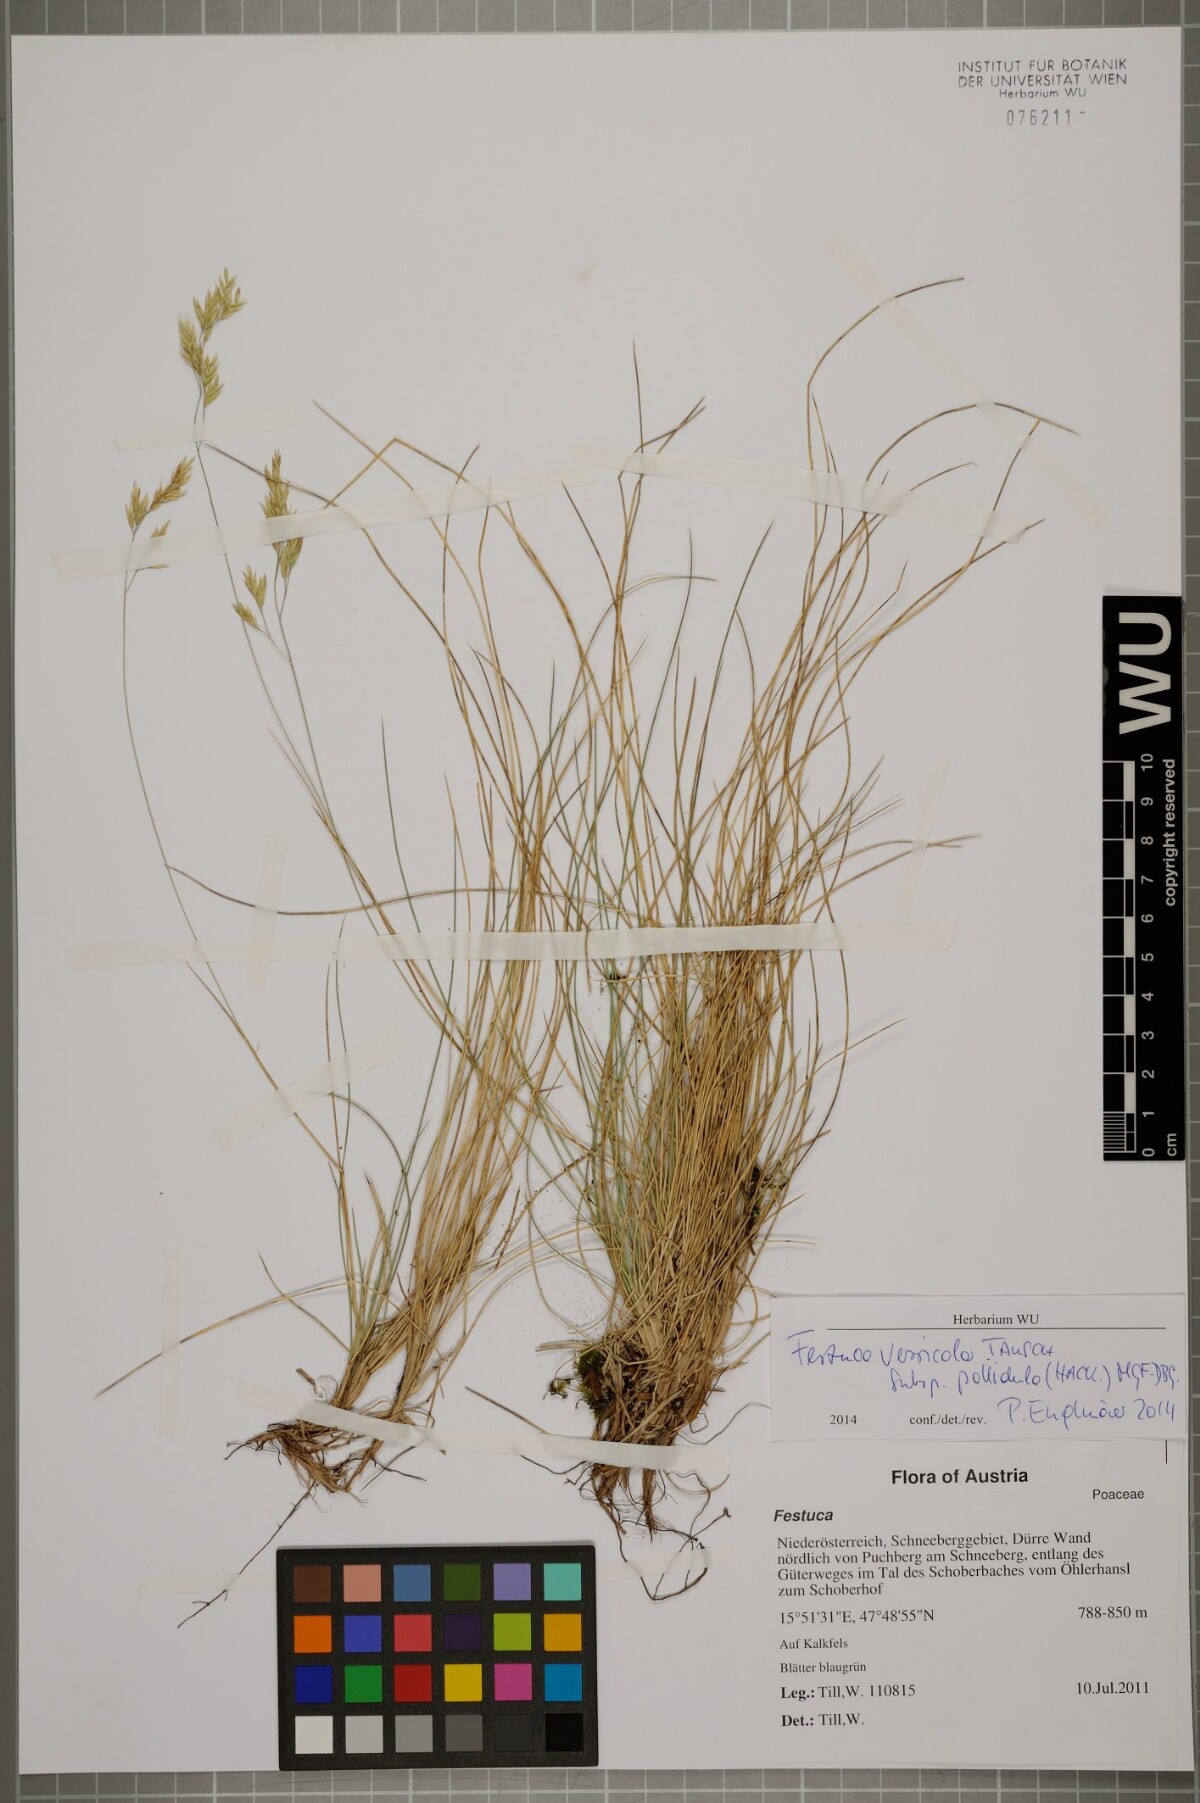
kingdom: Plantae
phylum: Tracheophyta
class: Liliopsida
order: Poales
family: Poaceae
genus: Festuca
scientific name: Festuca varia
